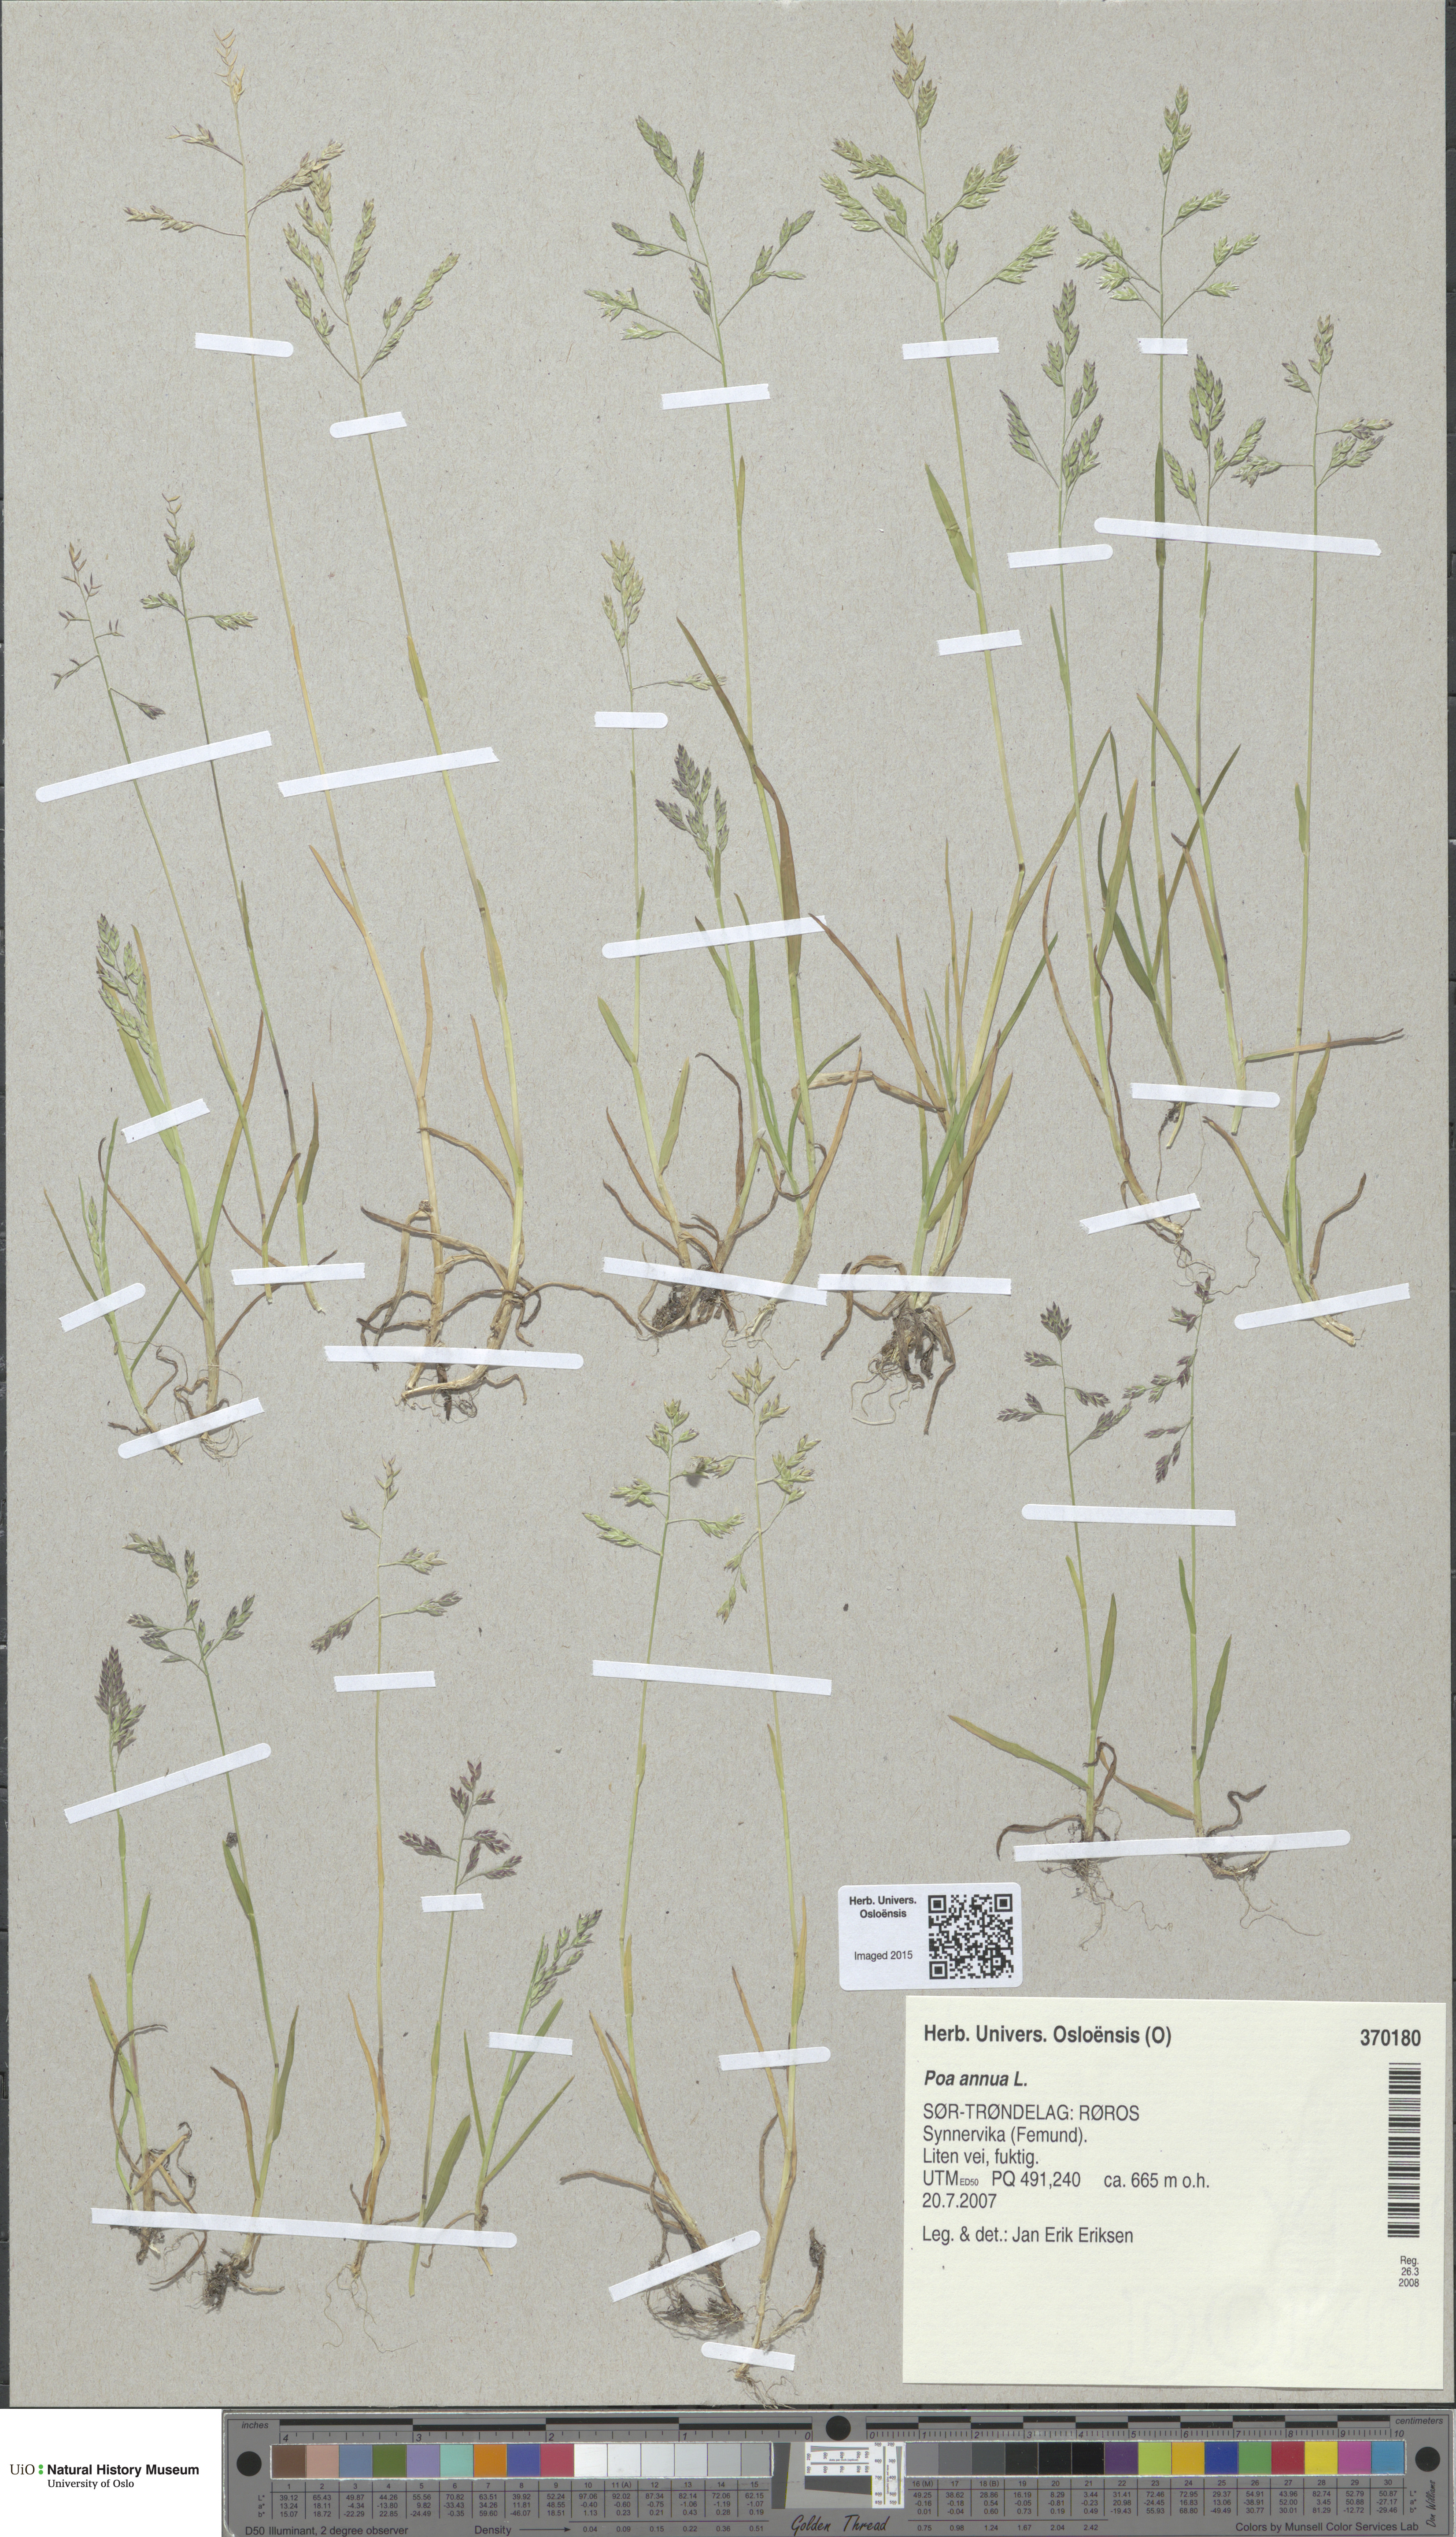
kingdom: Plantae
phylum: Tracheophyta
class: Liliopsida
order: Poales
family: Poaceae
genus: Poa
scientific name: Poa annua
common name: Annual bluegrass
